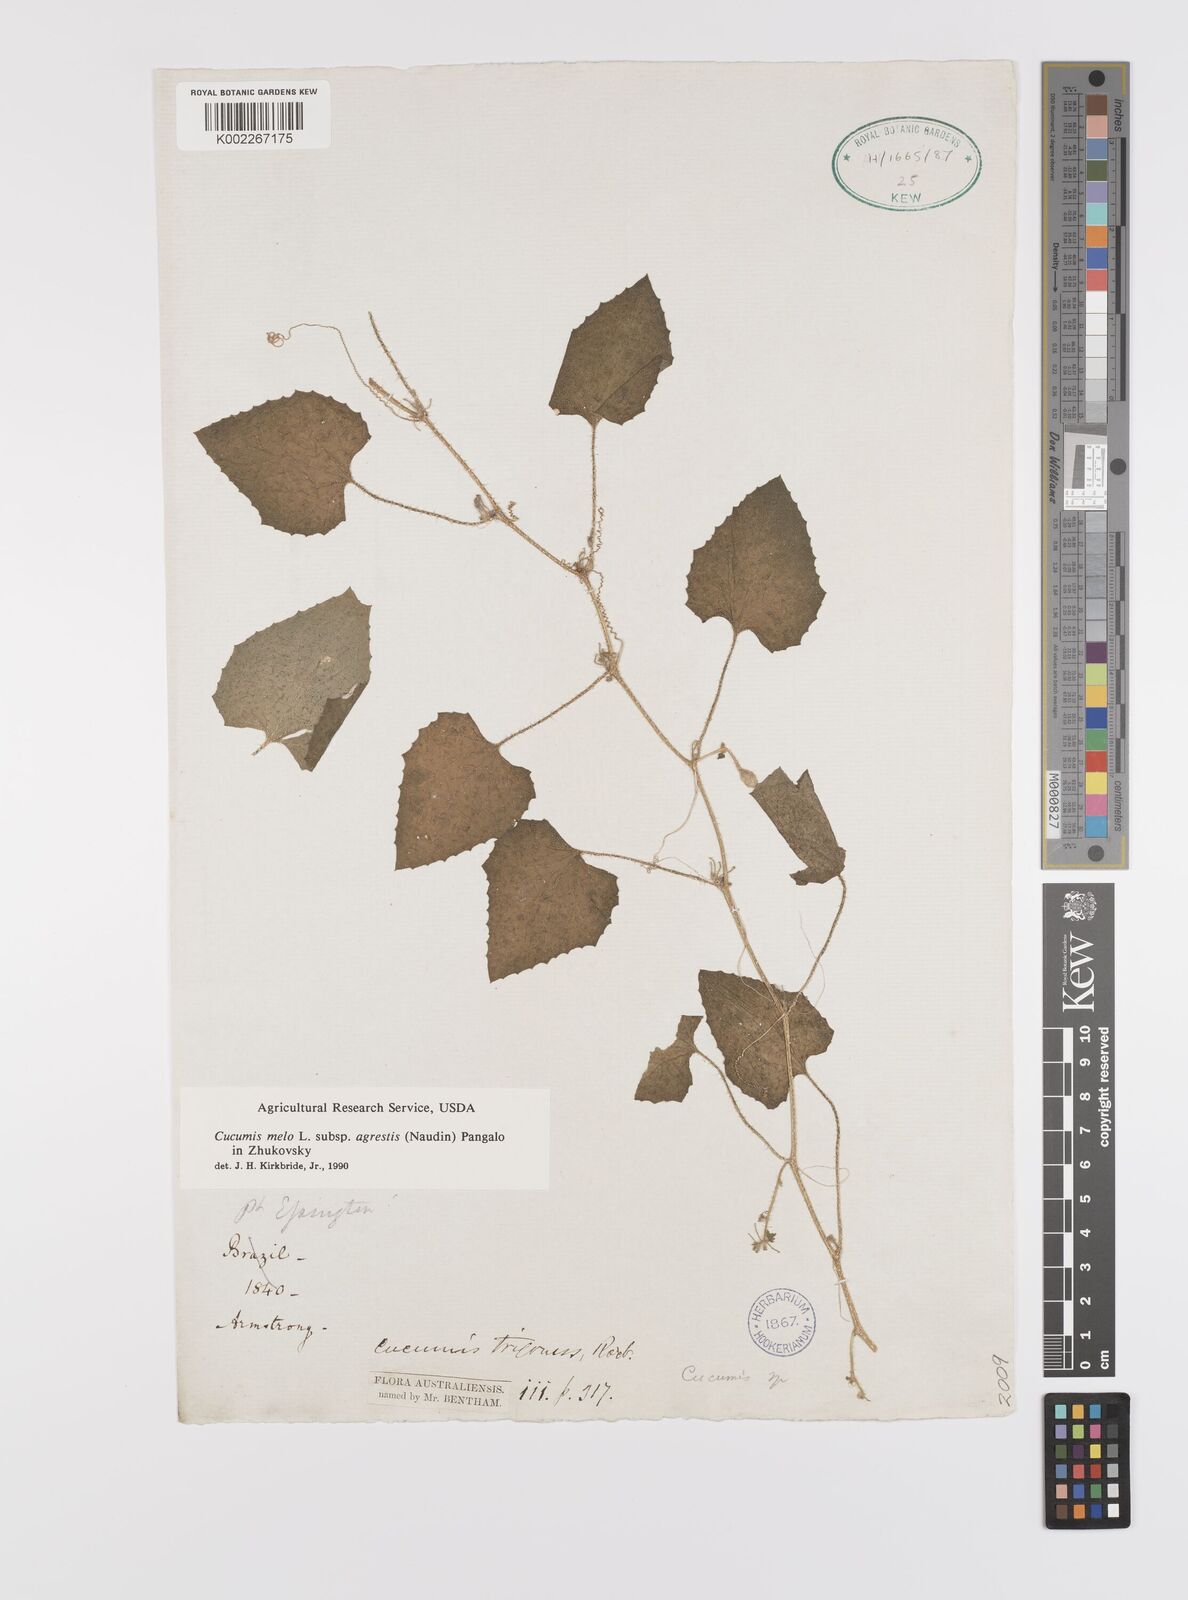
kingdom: Plantae
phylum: Tracheophyta
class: Magnoliopsida
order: Cucurbitales
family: Cucurbitaceae
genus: Cucumis
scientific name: Cucumis melo
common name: Melon
